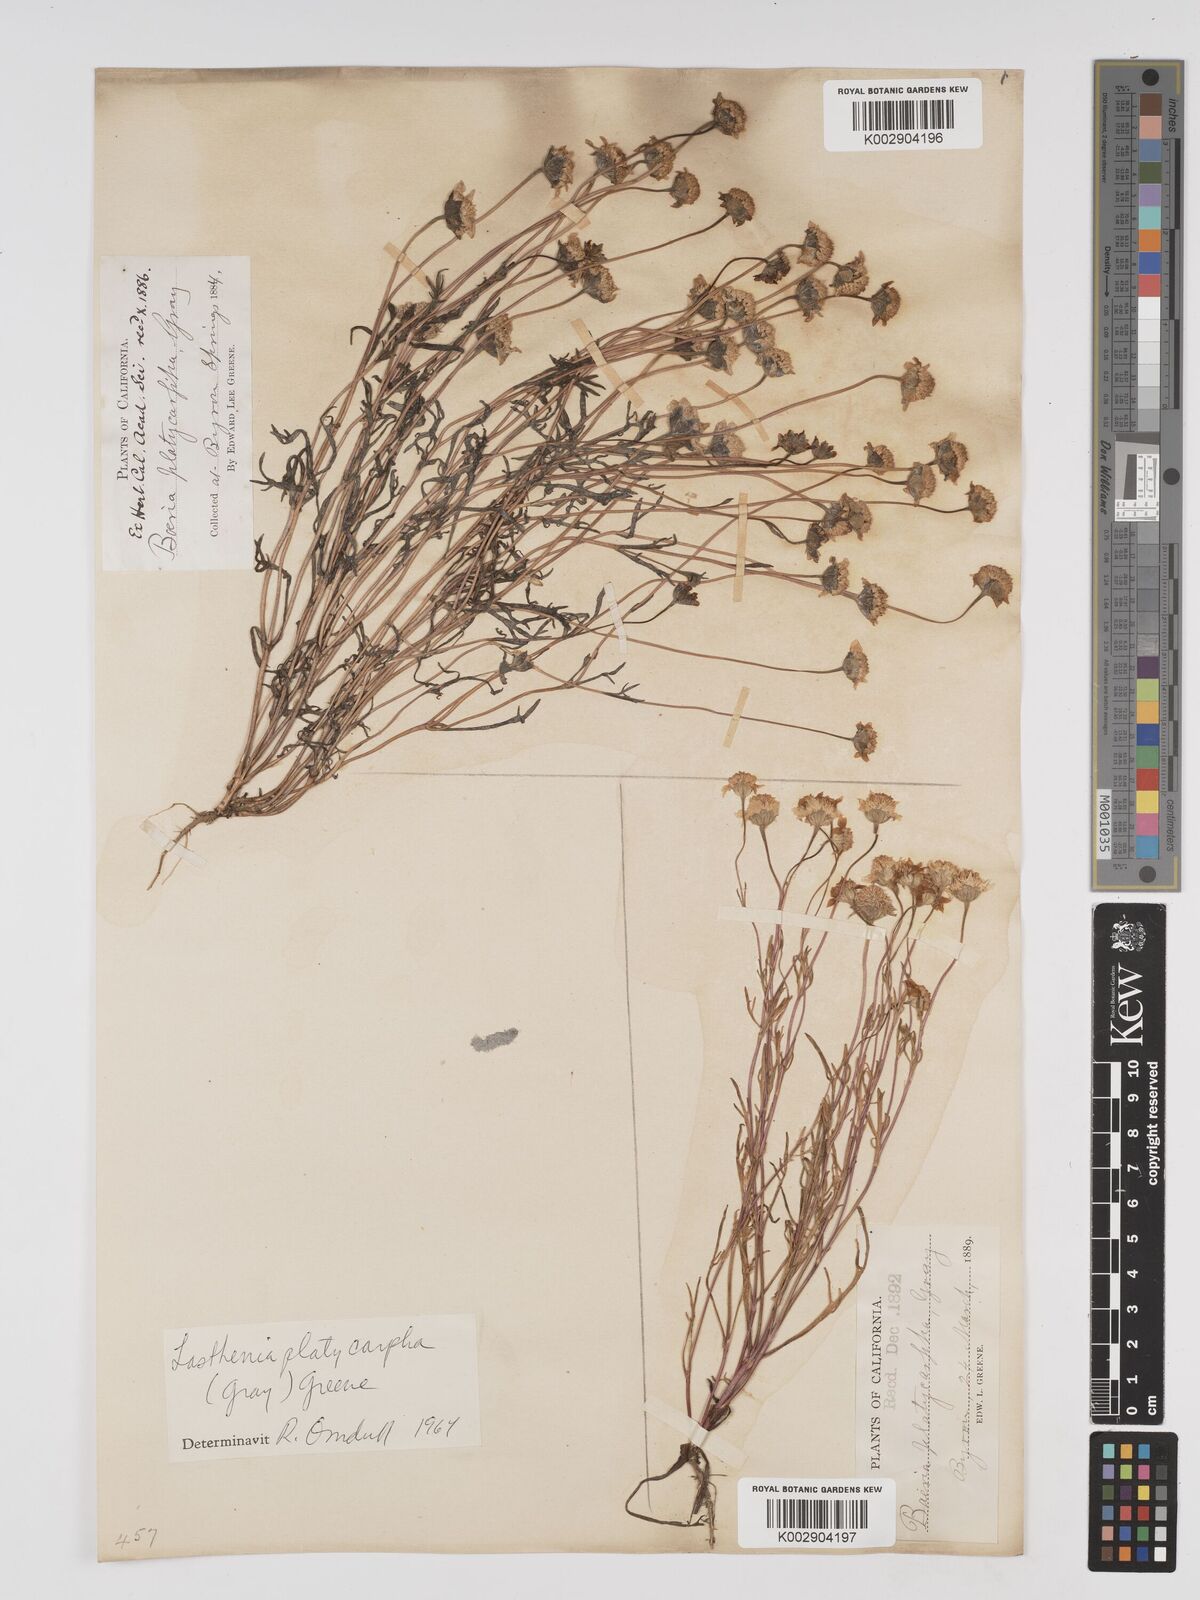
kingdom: Plantae
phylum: Tracheophyta
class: Magnoliopsida
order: Asterales
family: Asteraceae
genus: Lasthenia
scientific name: Lasthenia platycarpha
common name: Alkali goldfields
